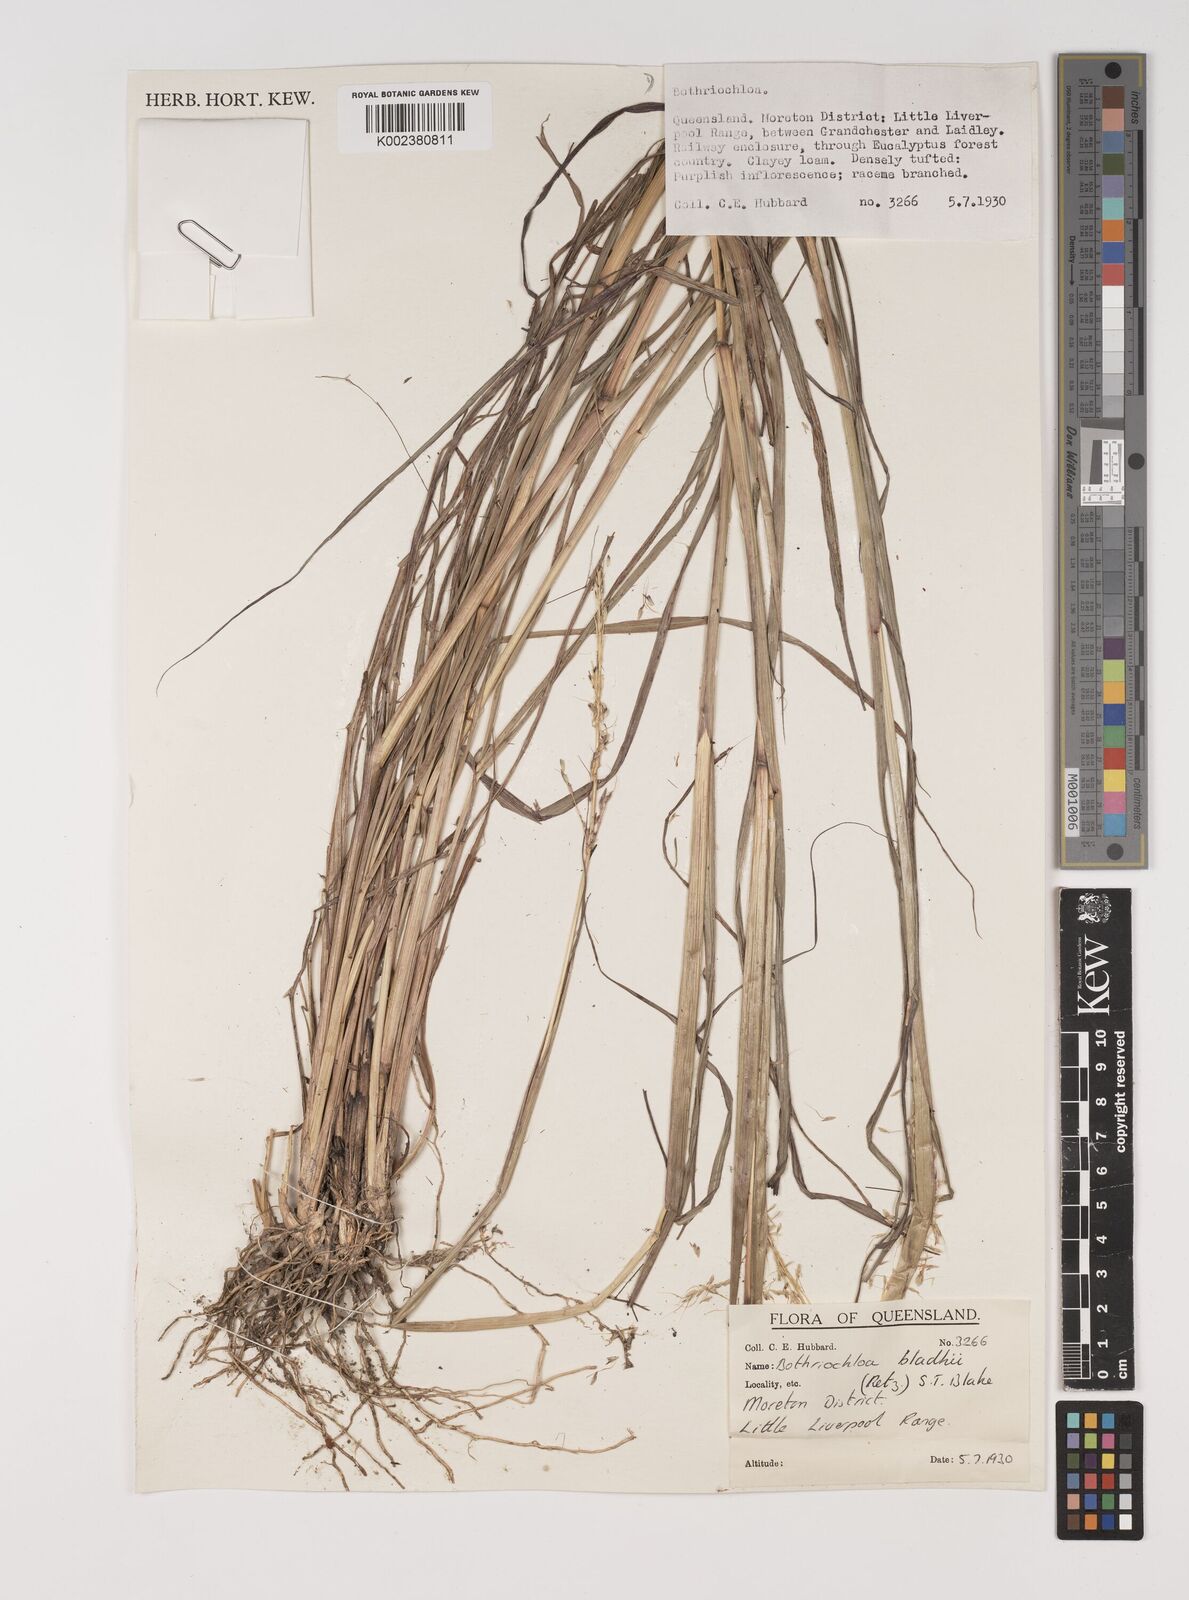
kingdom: Plantae
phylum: Tracheophyta
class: Liliopsida
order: Poales
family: Poaceae
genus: Bothriochloa
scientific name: Bothriochloa bladhii
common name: Caucasian bluestem
